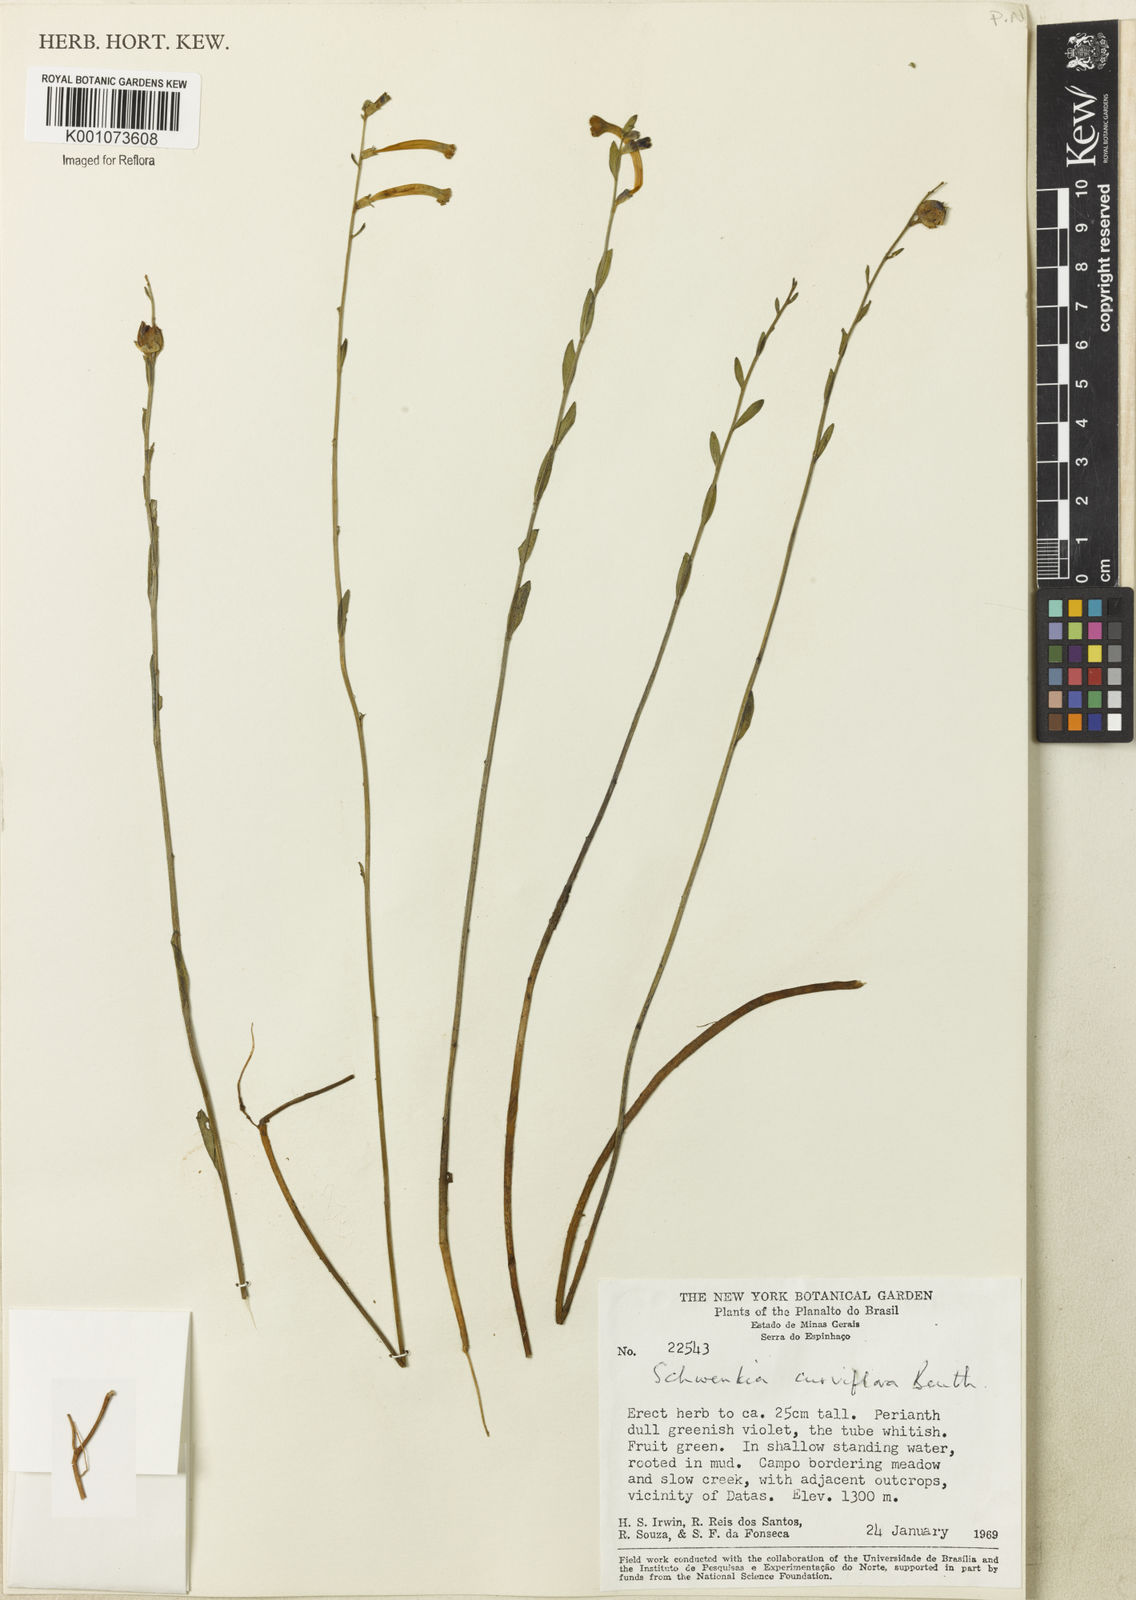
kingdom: Plantae
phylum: Tracheophyta
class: Magnoliopsida
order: Solanales
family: Solanaceae
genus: Schwenckia
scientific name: Schwenckia
